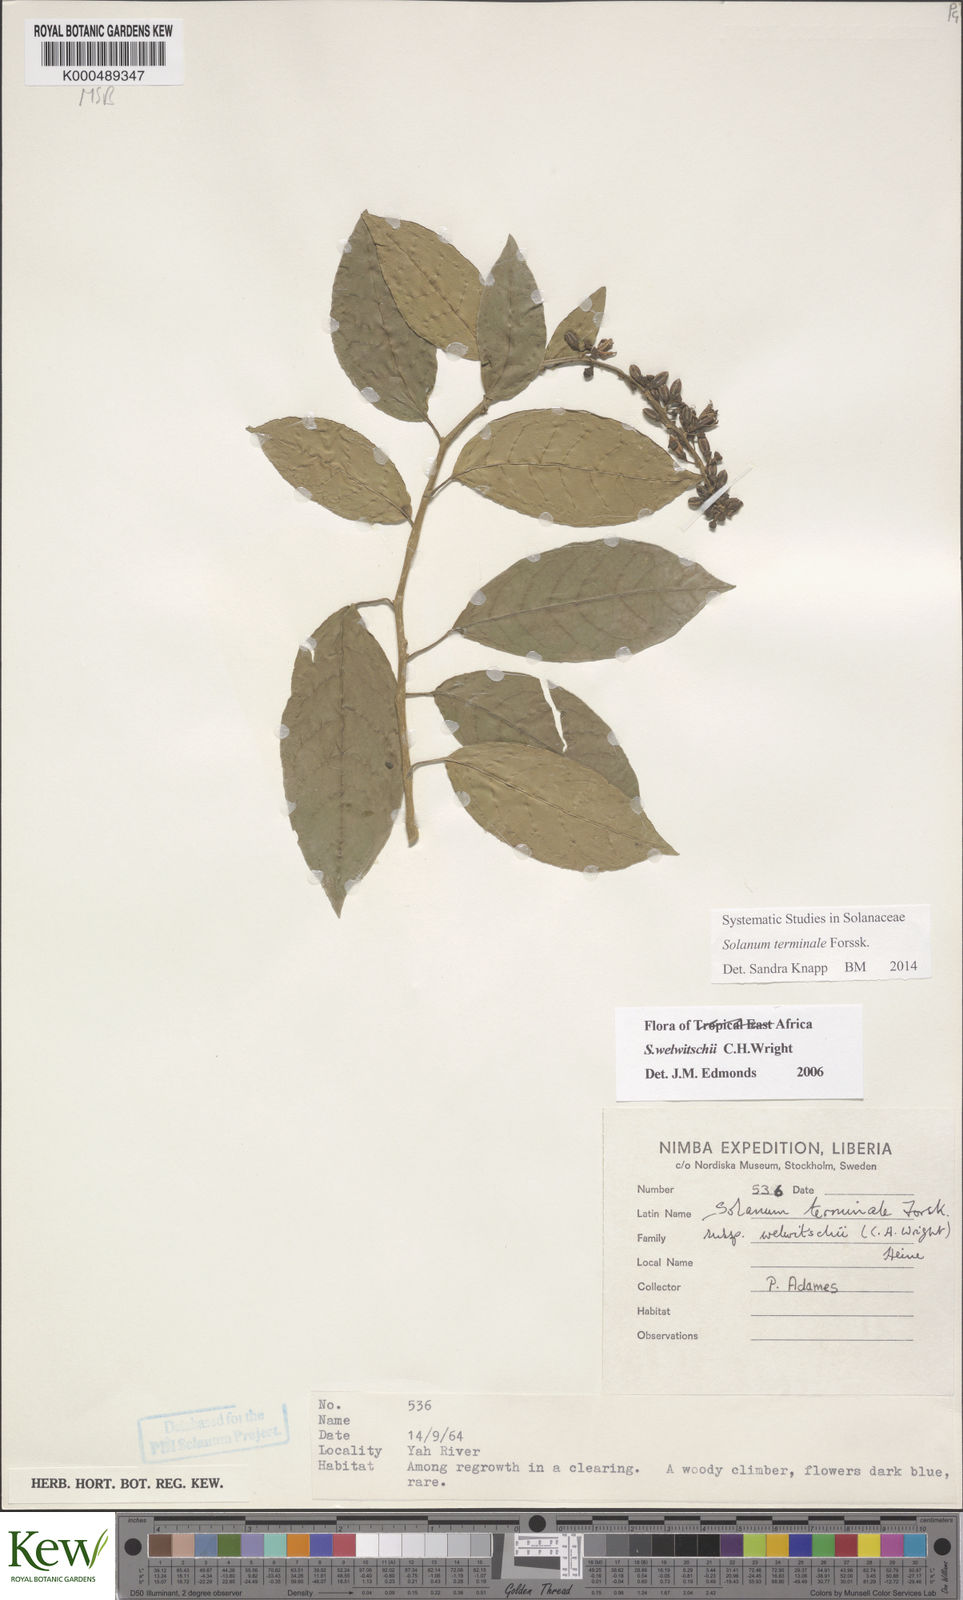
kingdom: Plantae
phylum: Tracheophyta
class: Magnoliopsida
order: Solanales
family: Solanaceae
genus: Solanum
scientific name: Solanum terminale
